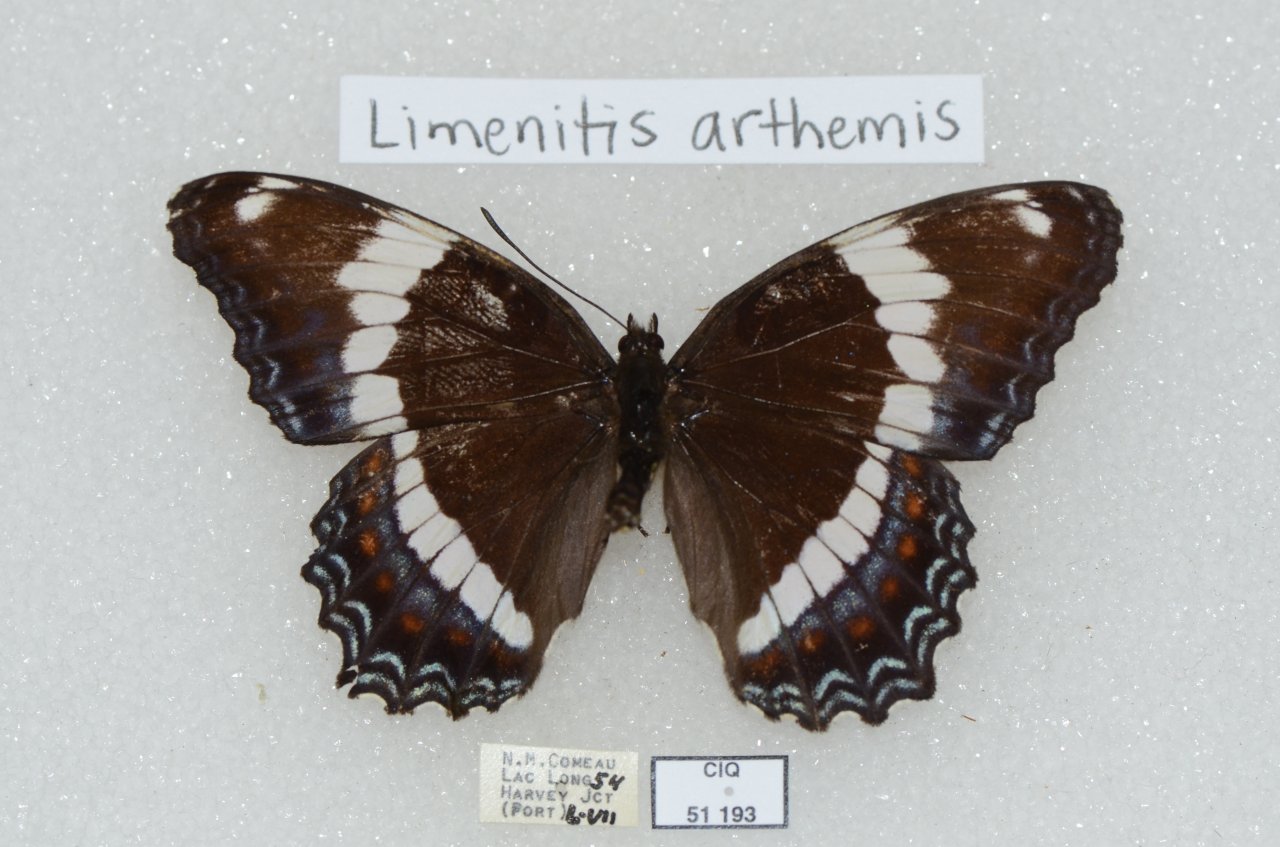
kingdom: Animalia
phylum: Arthropoda
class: Insecta
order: Lepidoptera
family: Nymphalidae
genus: Limenitis
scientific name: Limenitis arthemis
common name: Red-spotted Admiral
